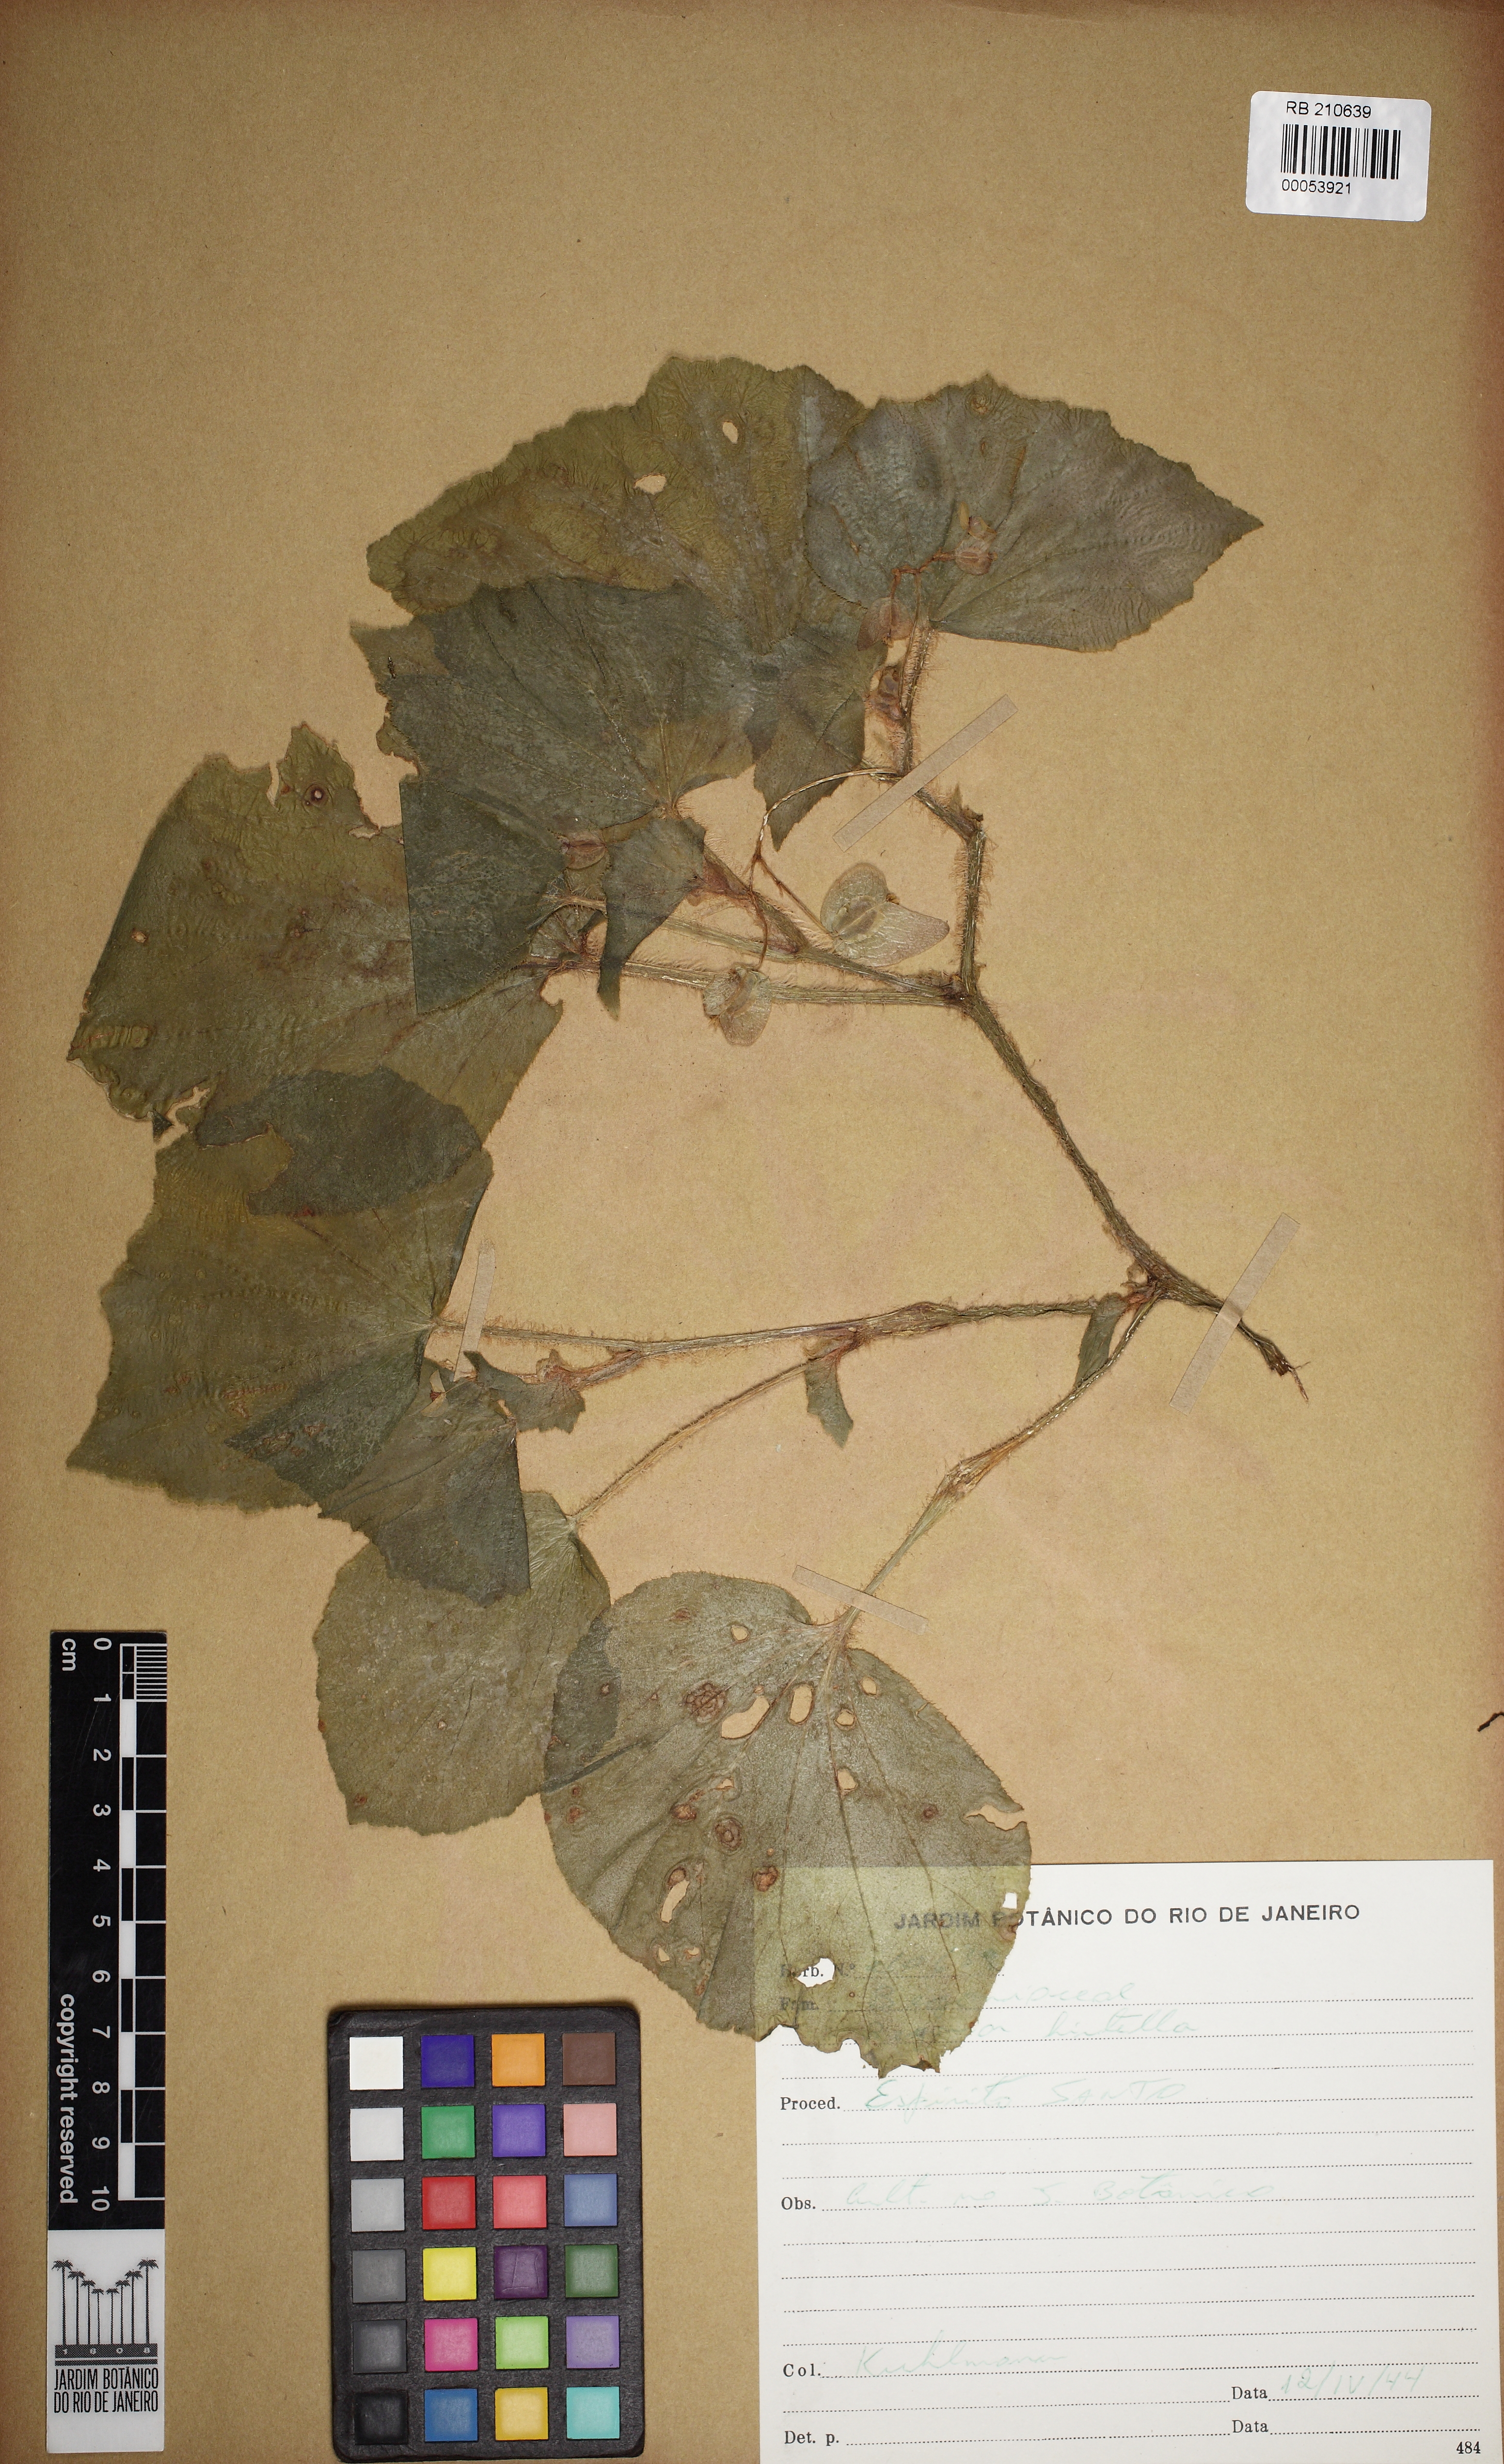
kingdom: Plantae
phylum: Tracheophyta
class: Magnoliopsida
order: Cucurbitales
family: Begoniaceae
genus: Begonia
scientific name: Begonia hirtella
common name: Brazilian begonia
